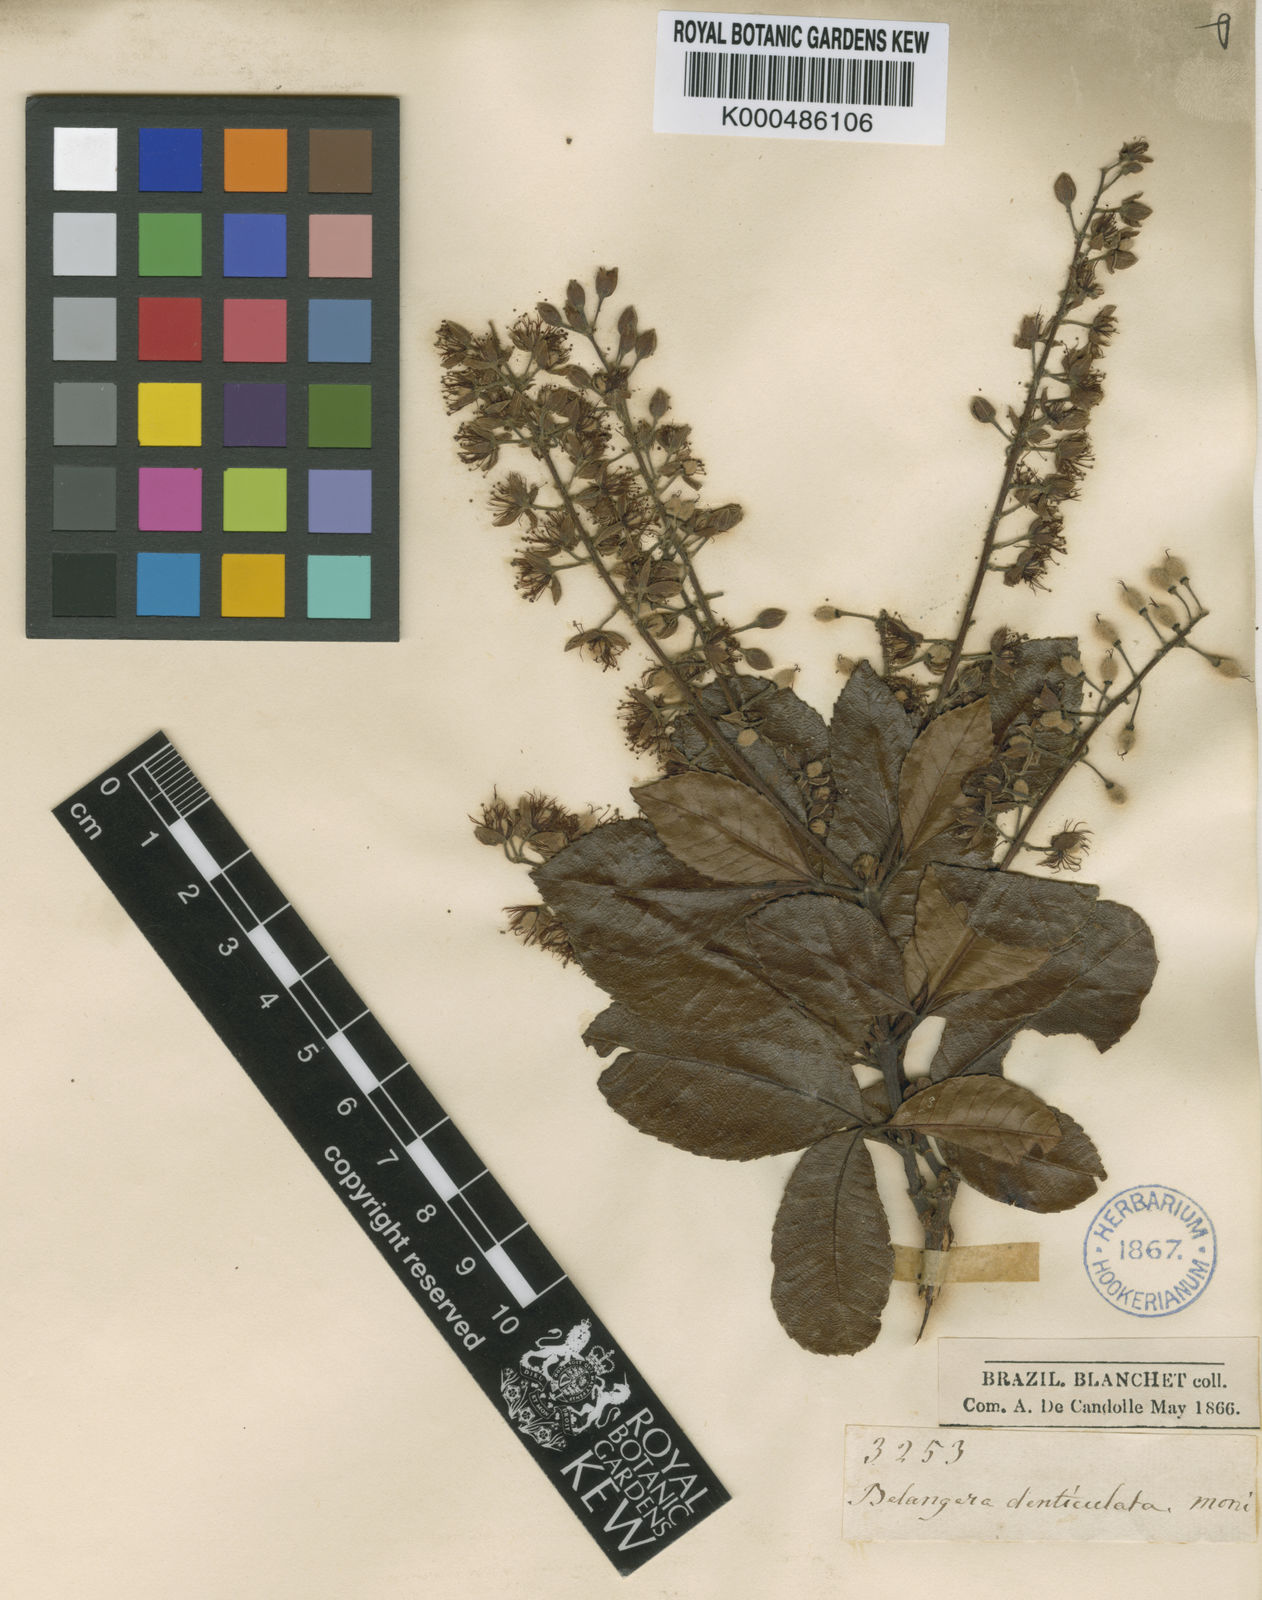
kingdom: Plantae
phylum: Tracheophyta
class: Magnoliopsida
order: Oxalidales
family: Cunoniaceae
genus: Lamanonia
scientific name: Lamanonia
